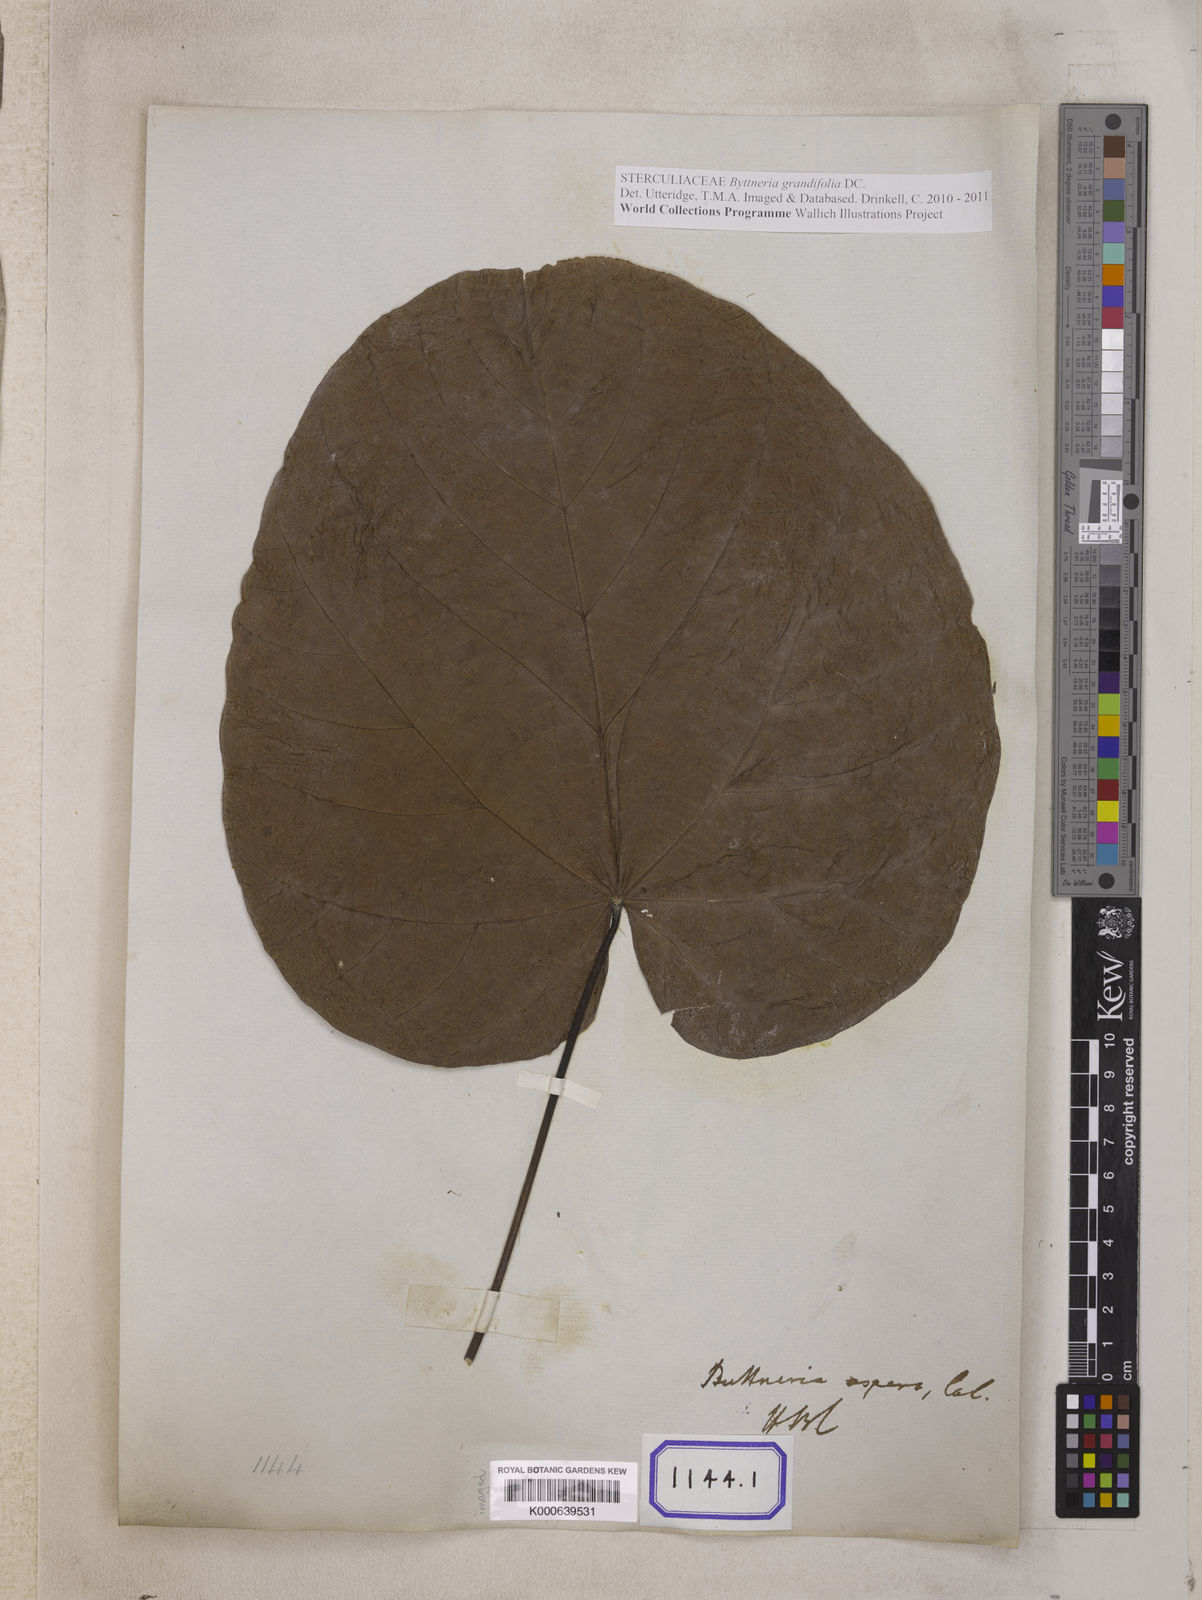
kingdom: Plantae
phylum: Tracheophyta
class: Magnoliopsida
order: Malvales
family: Malvaceae
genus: Byttneria
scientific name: Byttneria
